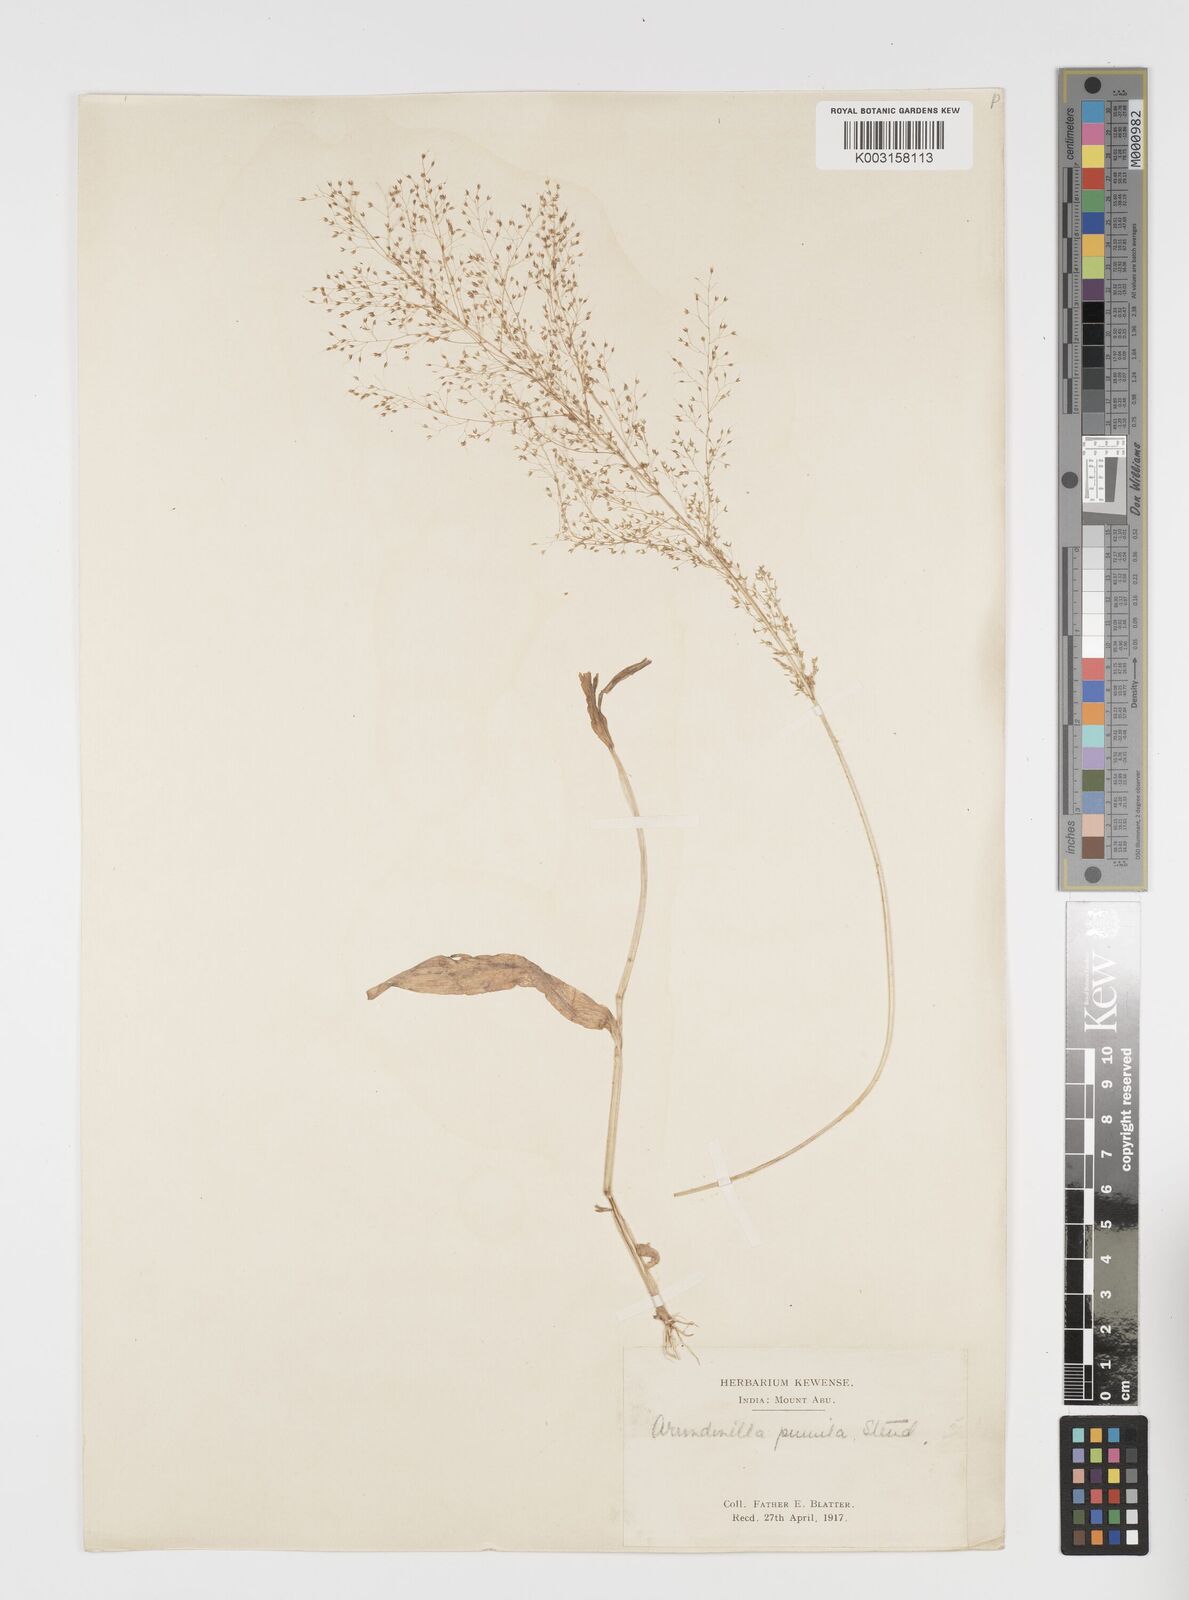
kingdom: Plantae
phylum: Tracheophyta
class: Liliopsida
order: Poales
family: Poaceae
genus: Arundinella
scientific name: Arundinella pumila
